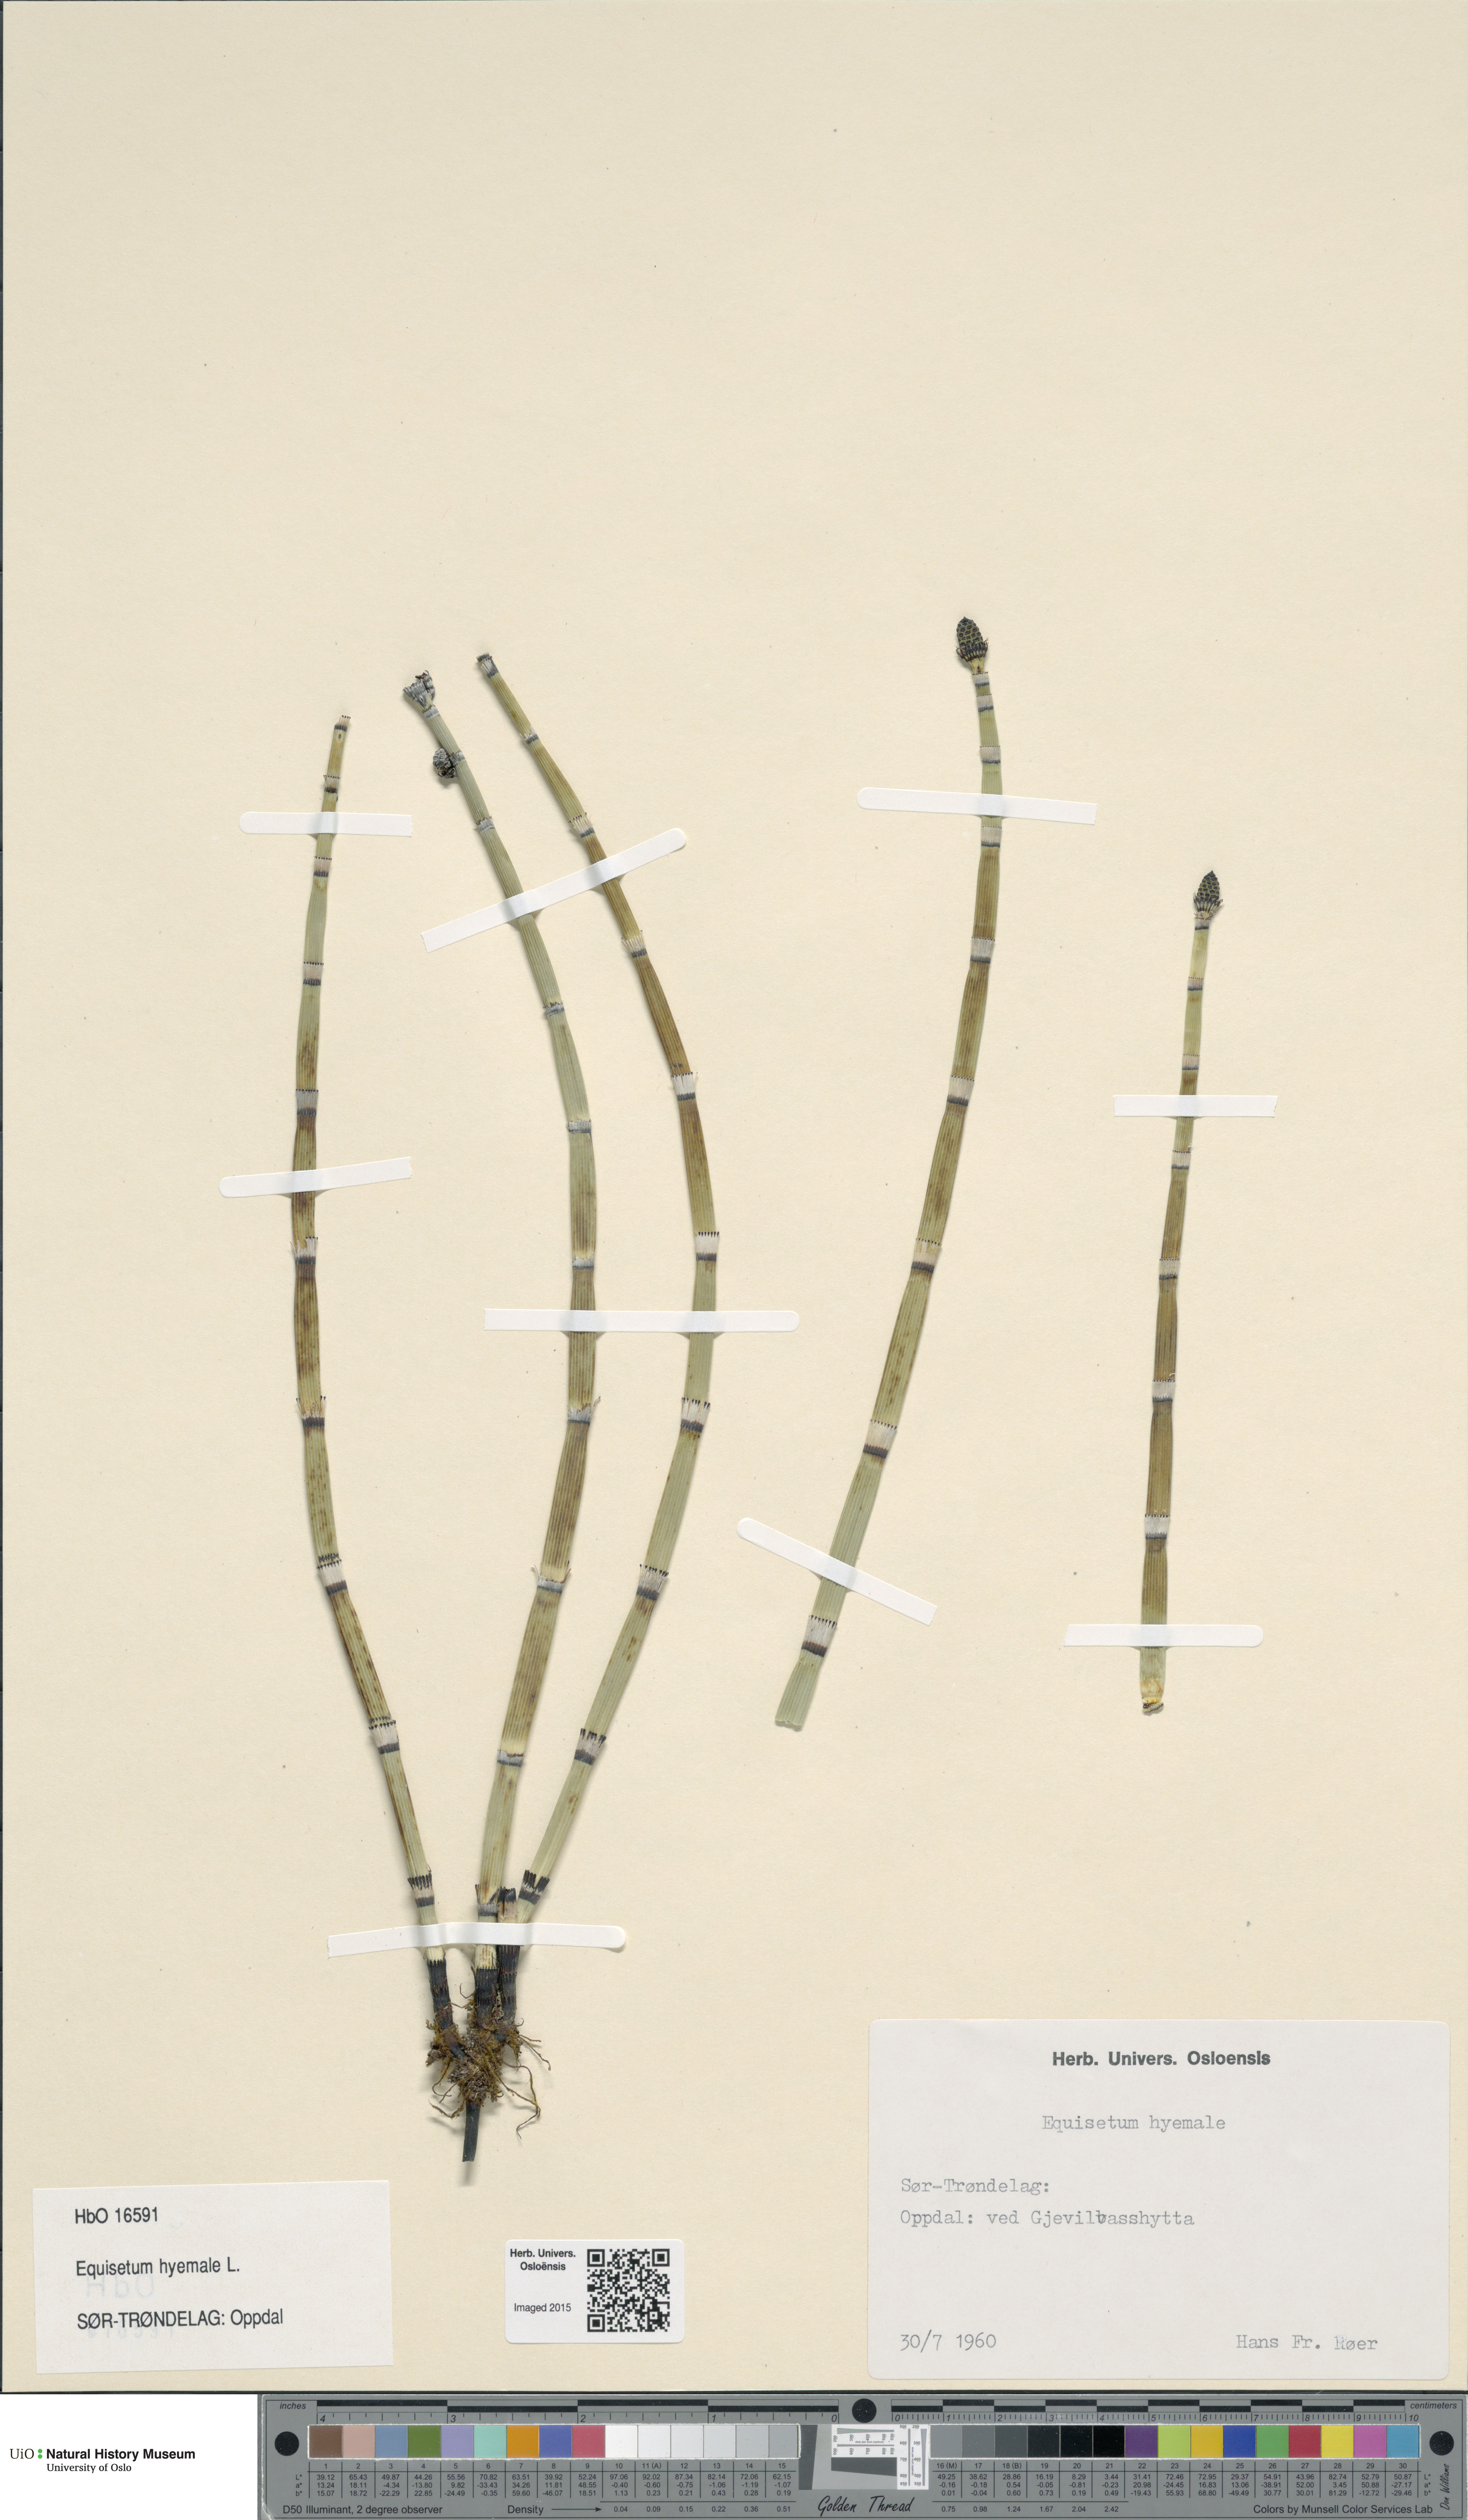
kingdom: Plantae
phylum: Tracheophyta
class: Polypodiopsida
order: Equisetales
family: Equisetaceae
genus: Equisetum
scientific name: Equisetum hyemale
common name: Rough horsetail
